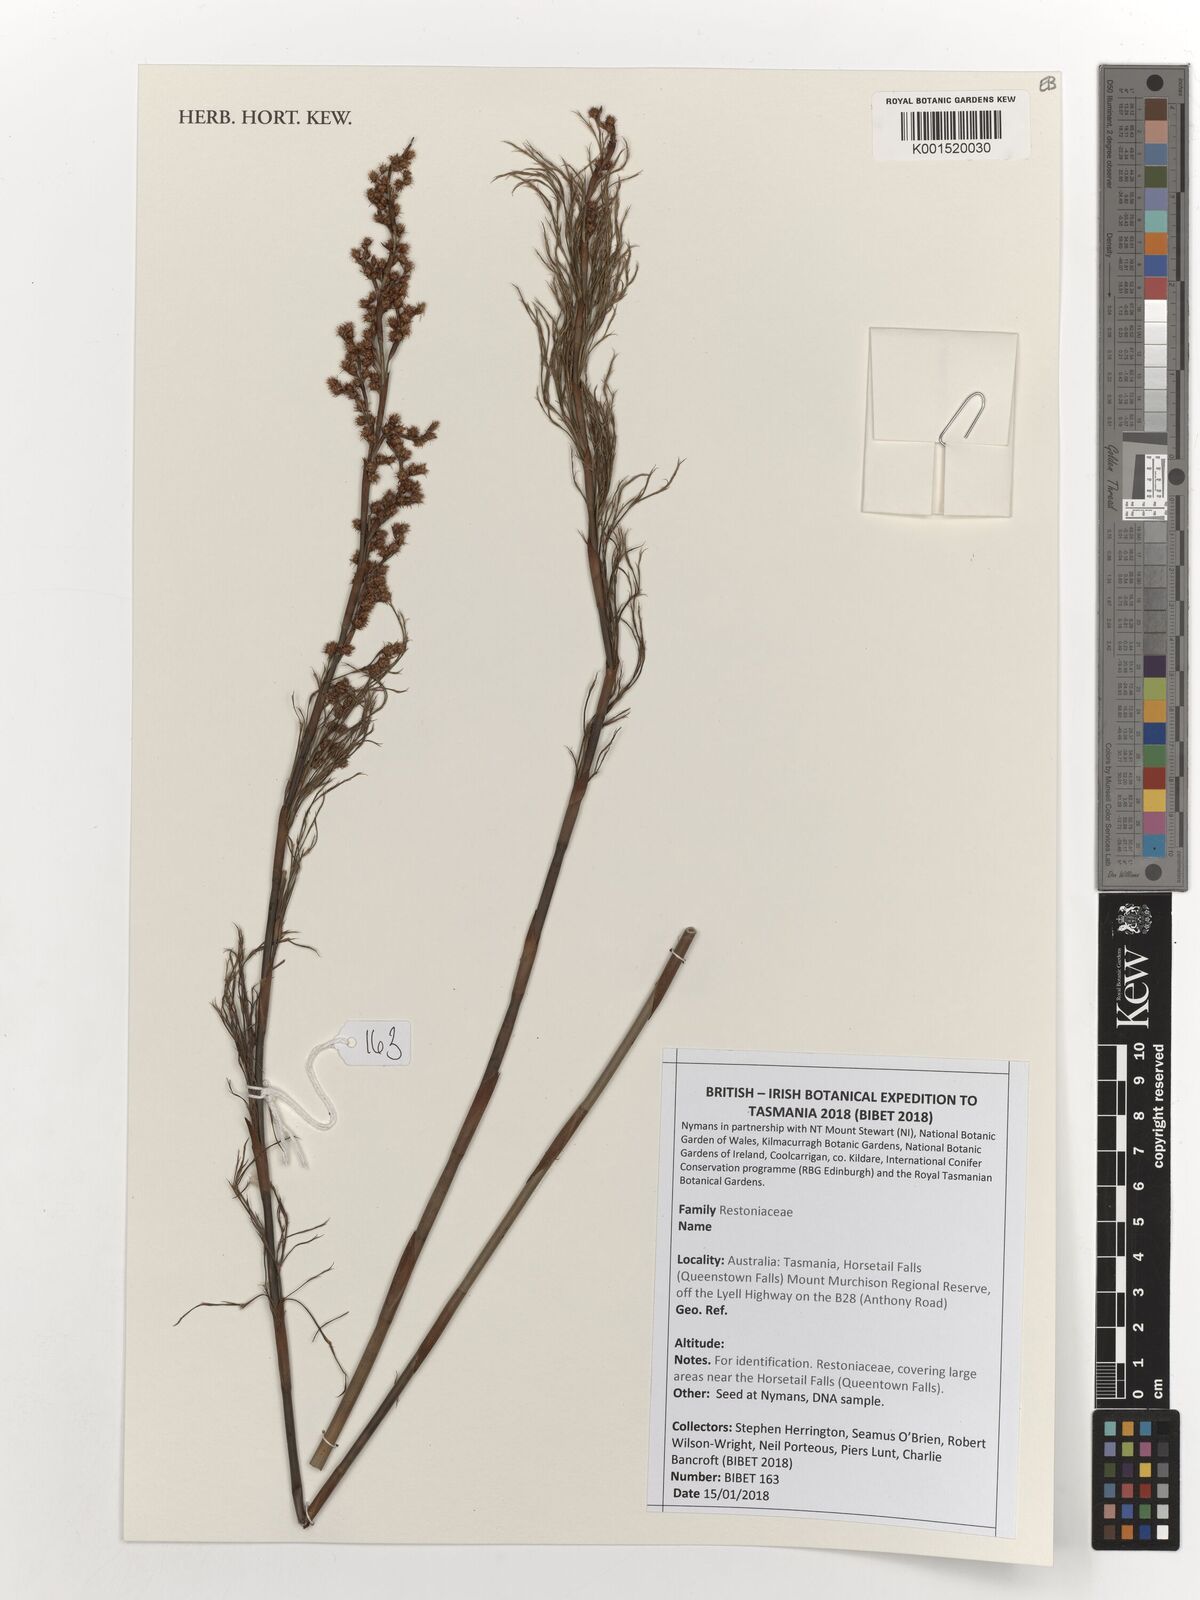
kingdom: Plantae
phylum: Tracheophyta
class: Liliopsida
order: Poales
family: Restionaceae
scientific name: Restionaceae
